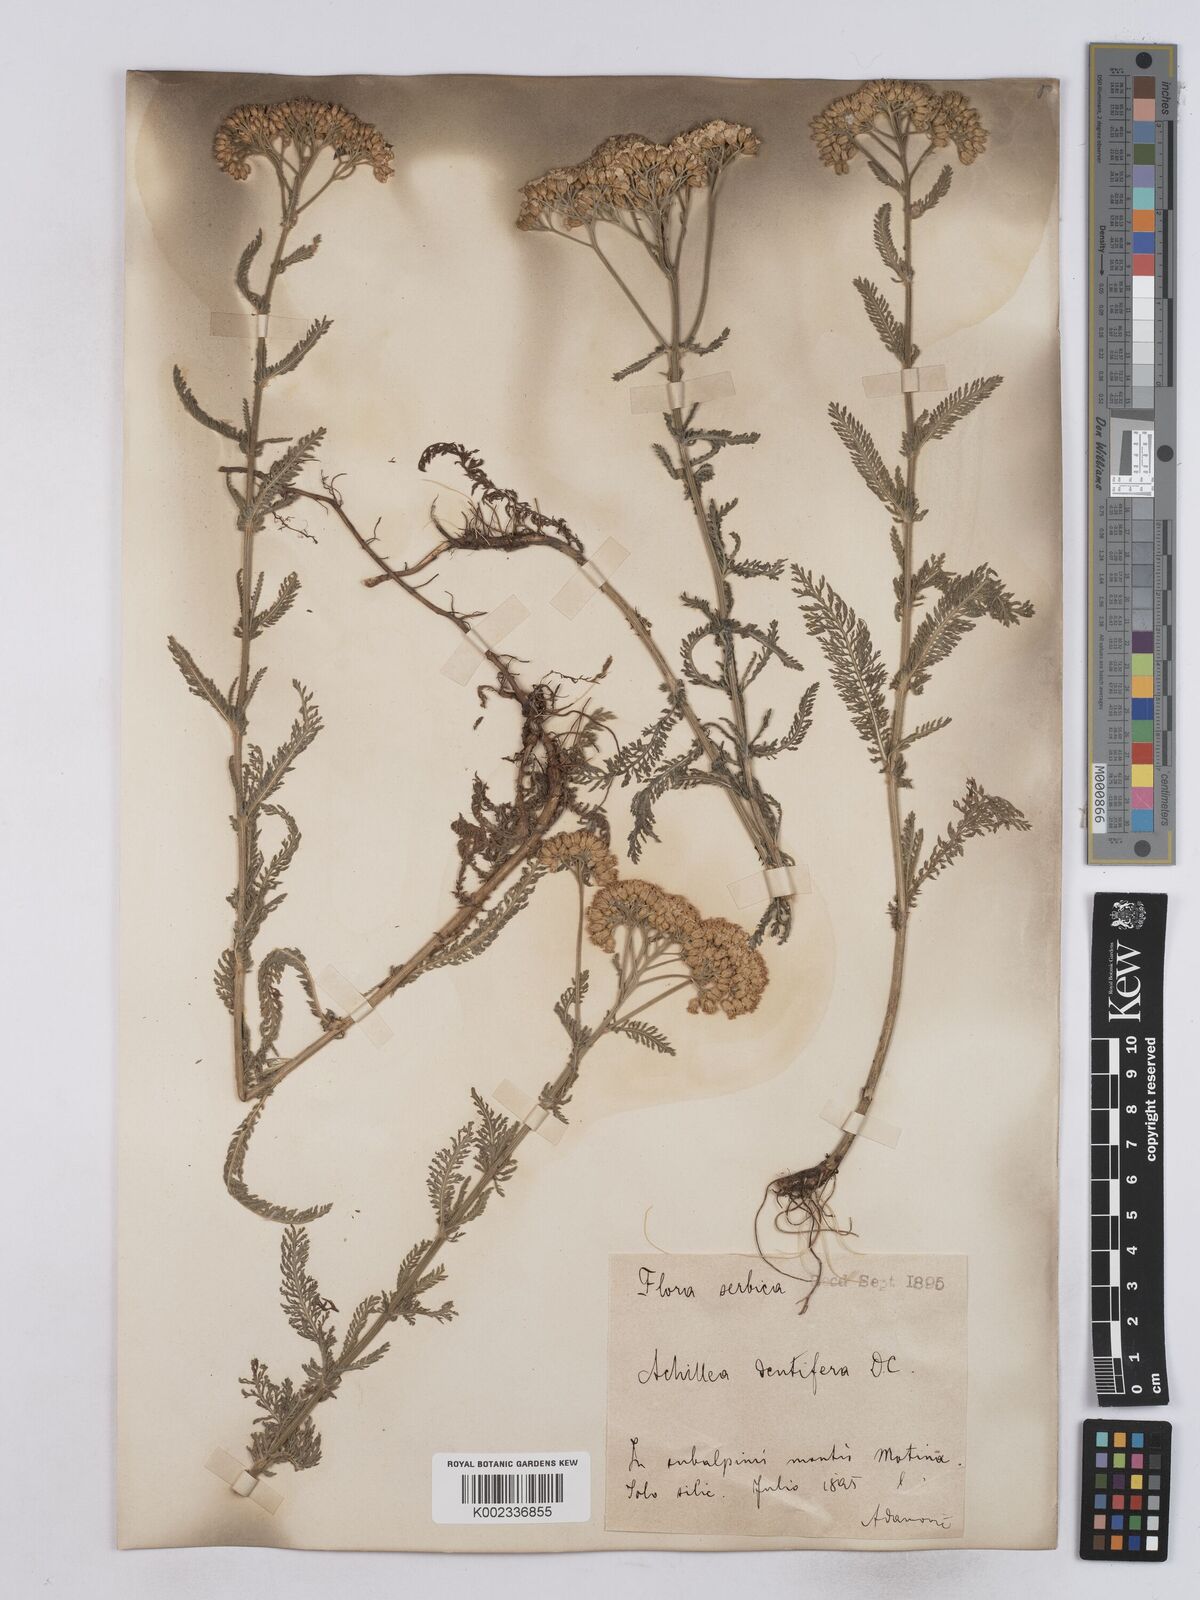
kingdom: Plantae
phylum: Tracheophyta
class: Magnoliopsida
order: Asterales
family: Asteraceae
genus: Achillea
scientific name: Achillea crithmifolia
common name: Yarrow
